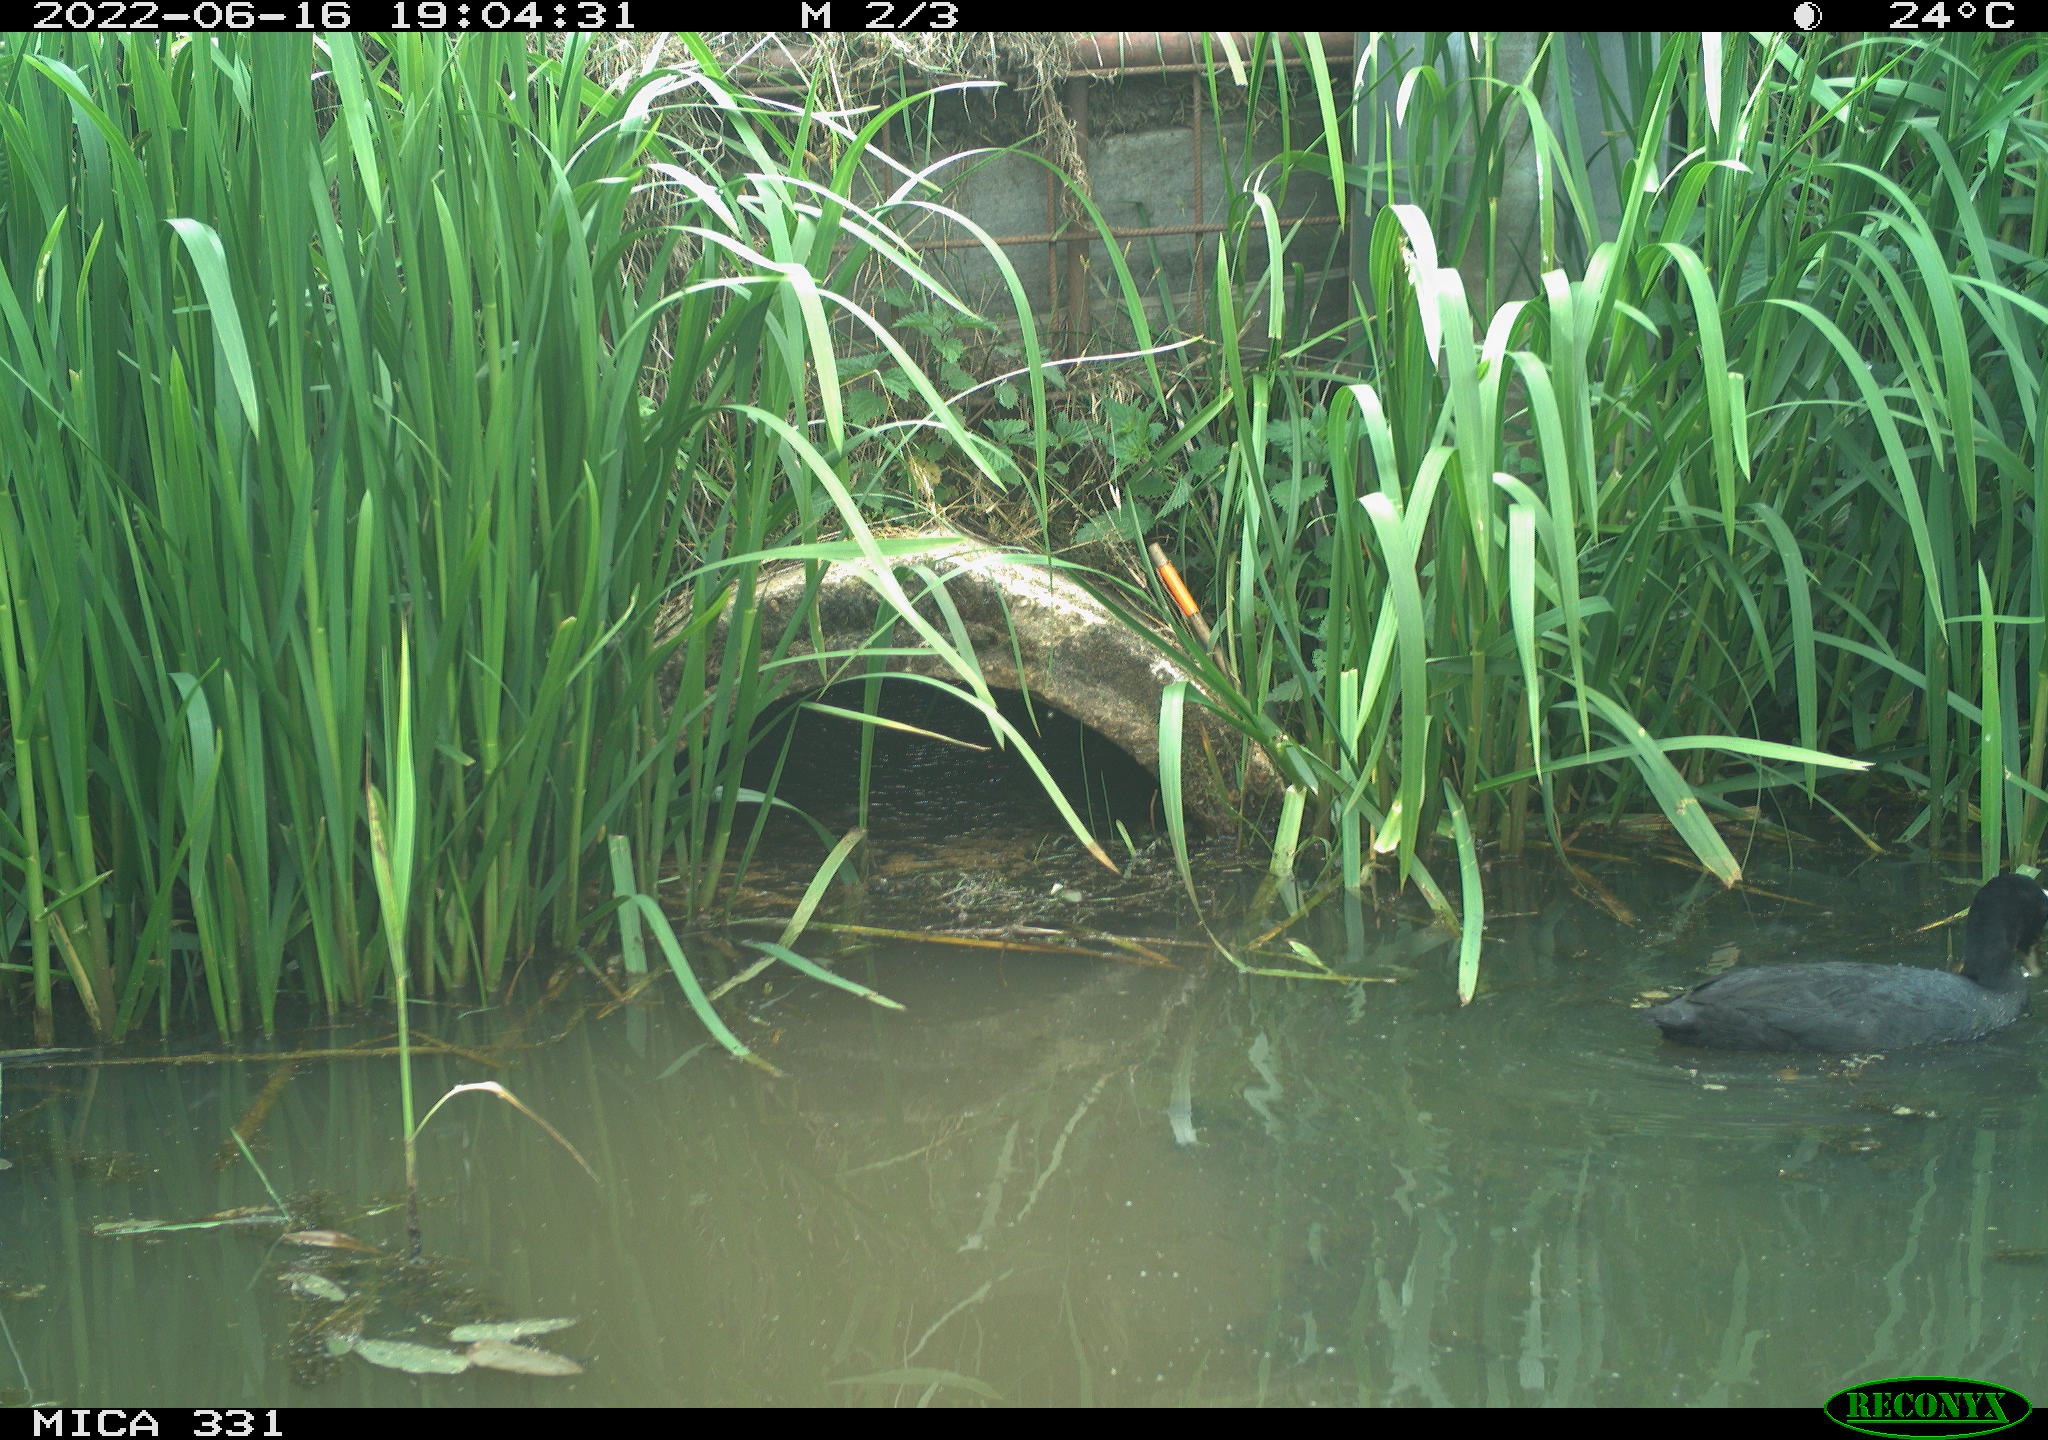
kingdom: Animalia
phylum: Chordata
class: Aves
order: Gruiformes
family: Rallidae
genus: Fulica
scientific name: Fulica atra
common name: Eurasian coot
